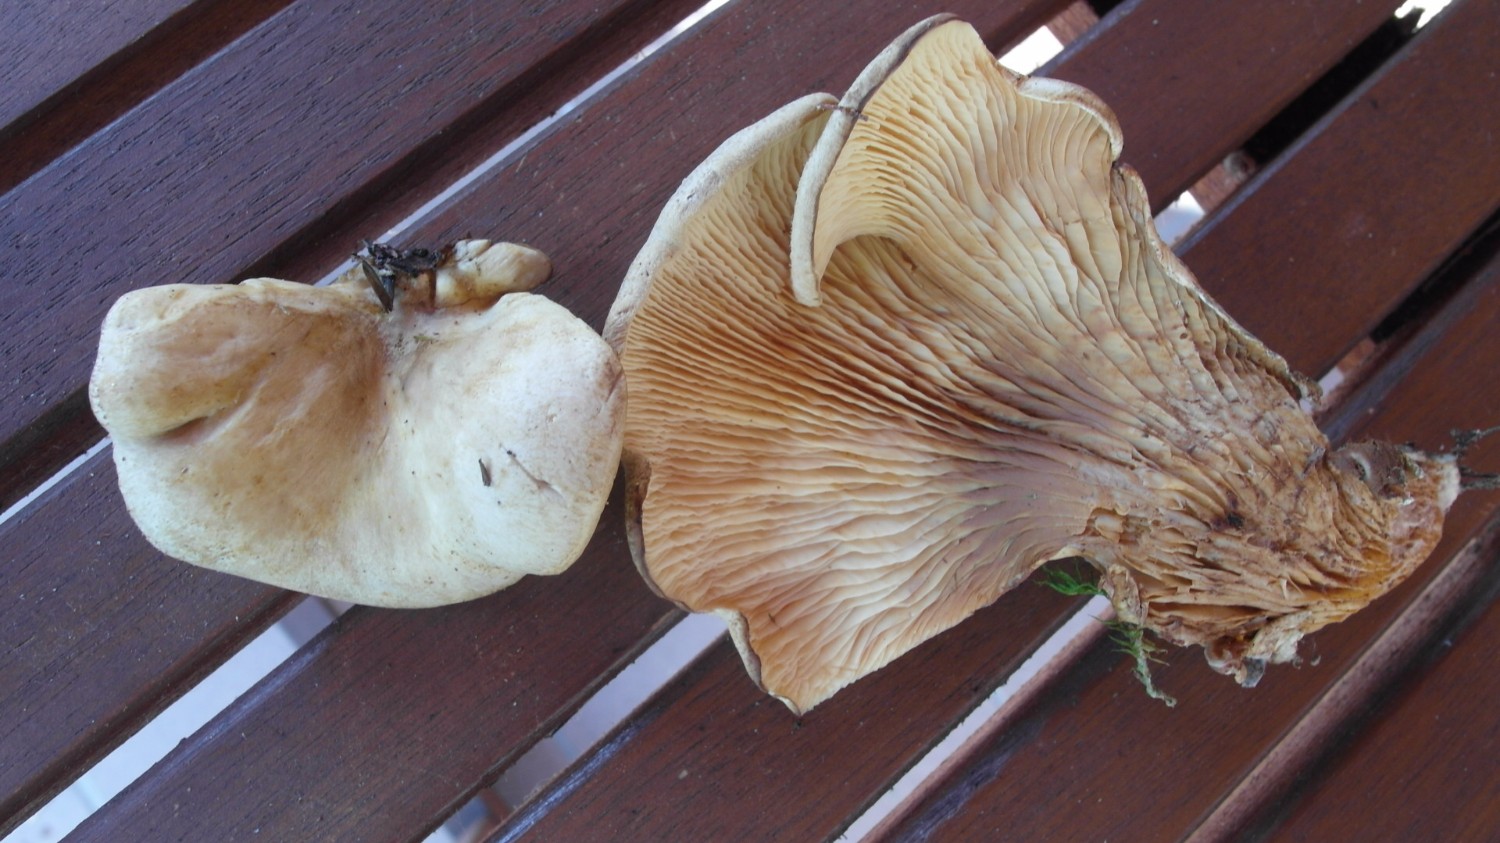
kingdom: Fungi
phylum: Basidiomycota
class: Agaricomycetes
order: Boletales
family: Tapinellaceae
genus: Tapinella
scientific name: Tapinella panuoides
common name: tømmer-viftesvamp
